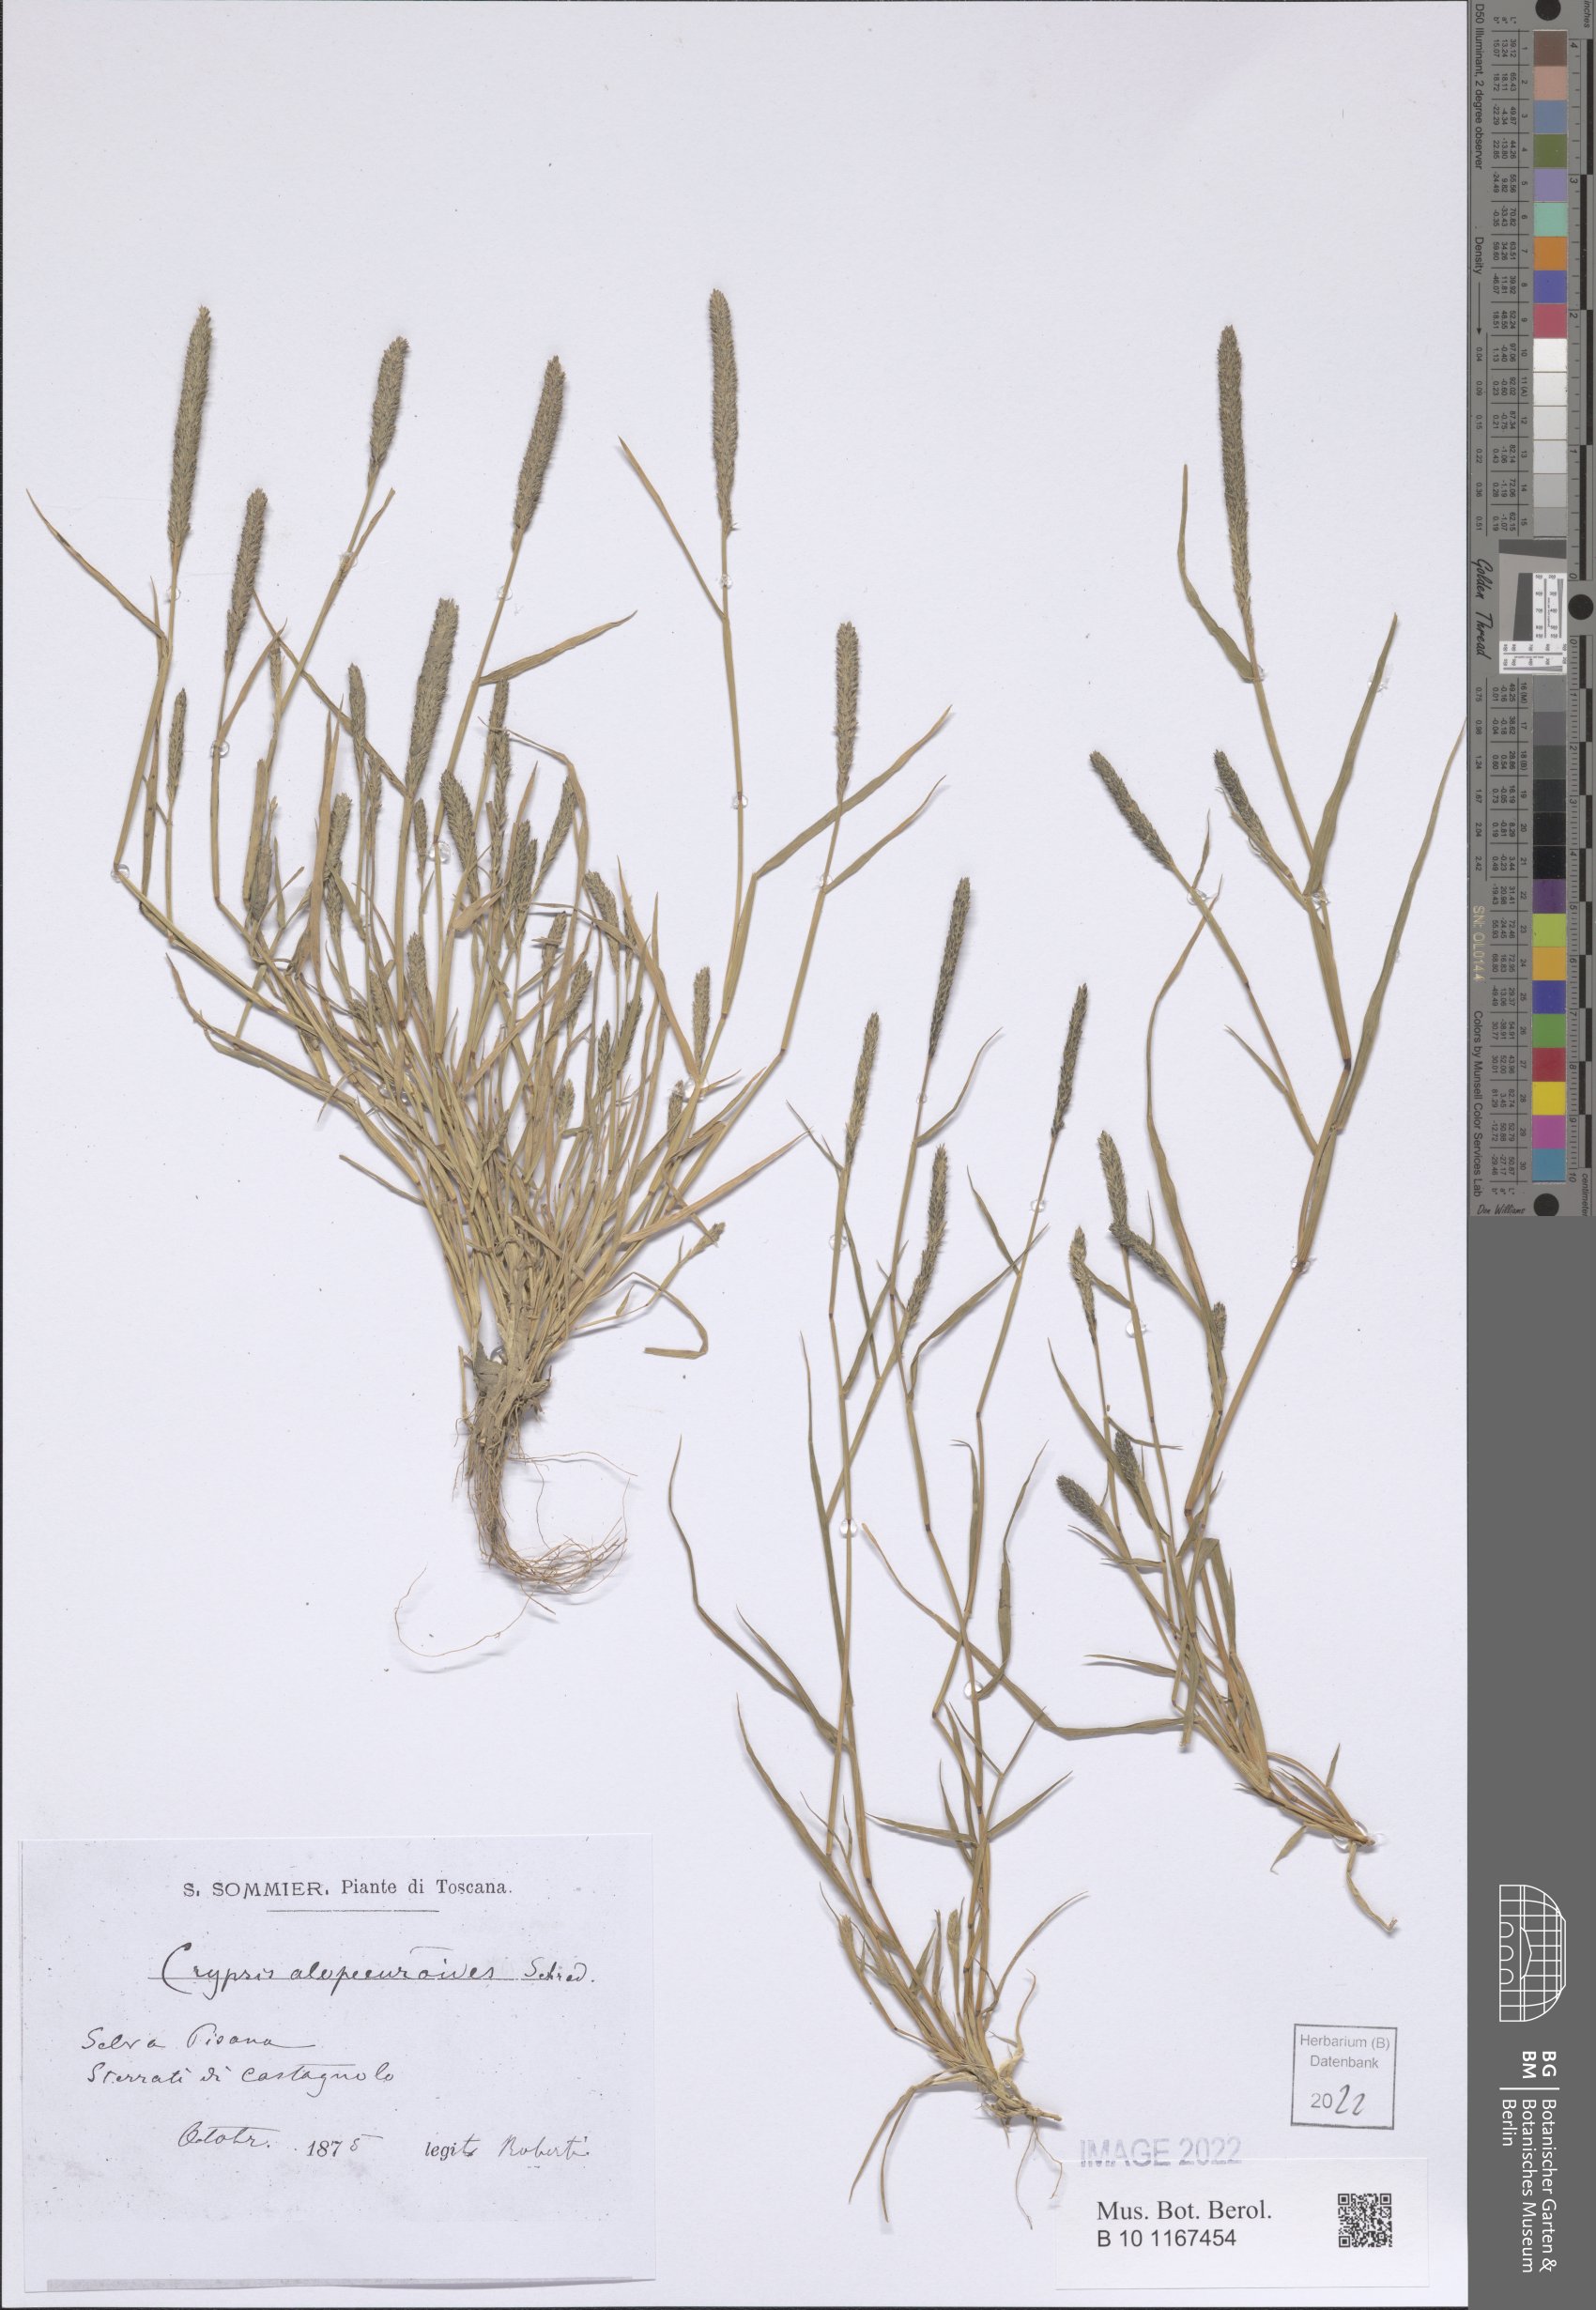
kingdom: Plantae
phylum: Tracheophyta
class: Liliopsida
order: Poales
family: Poaceae
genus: Sporobolus
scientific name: Sporobolus alopecuroides
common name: Foxtail pricklegrass
